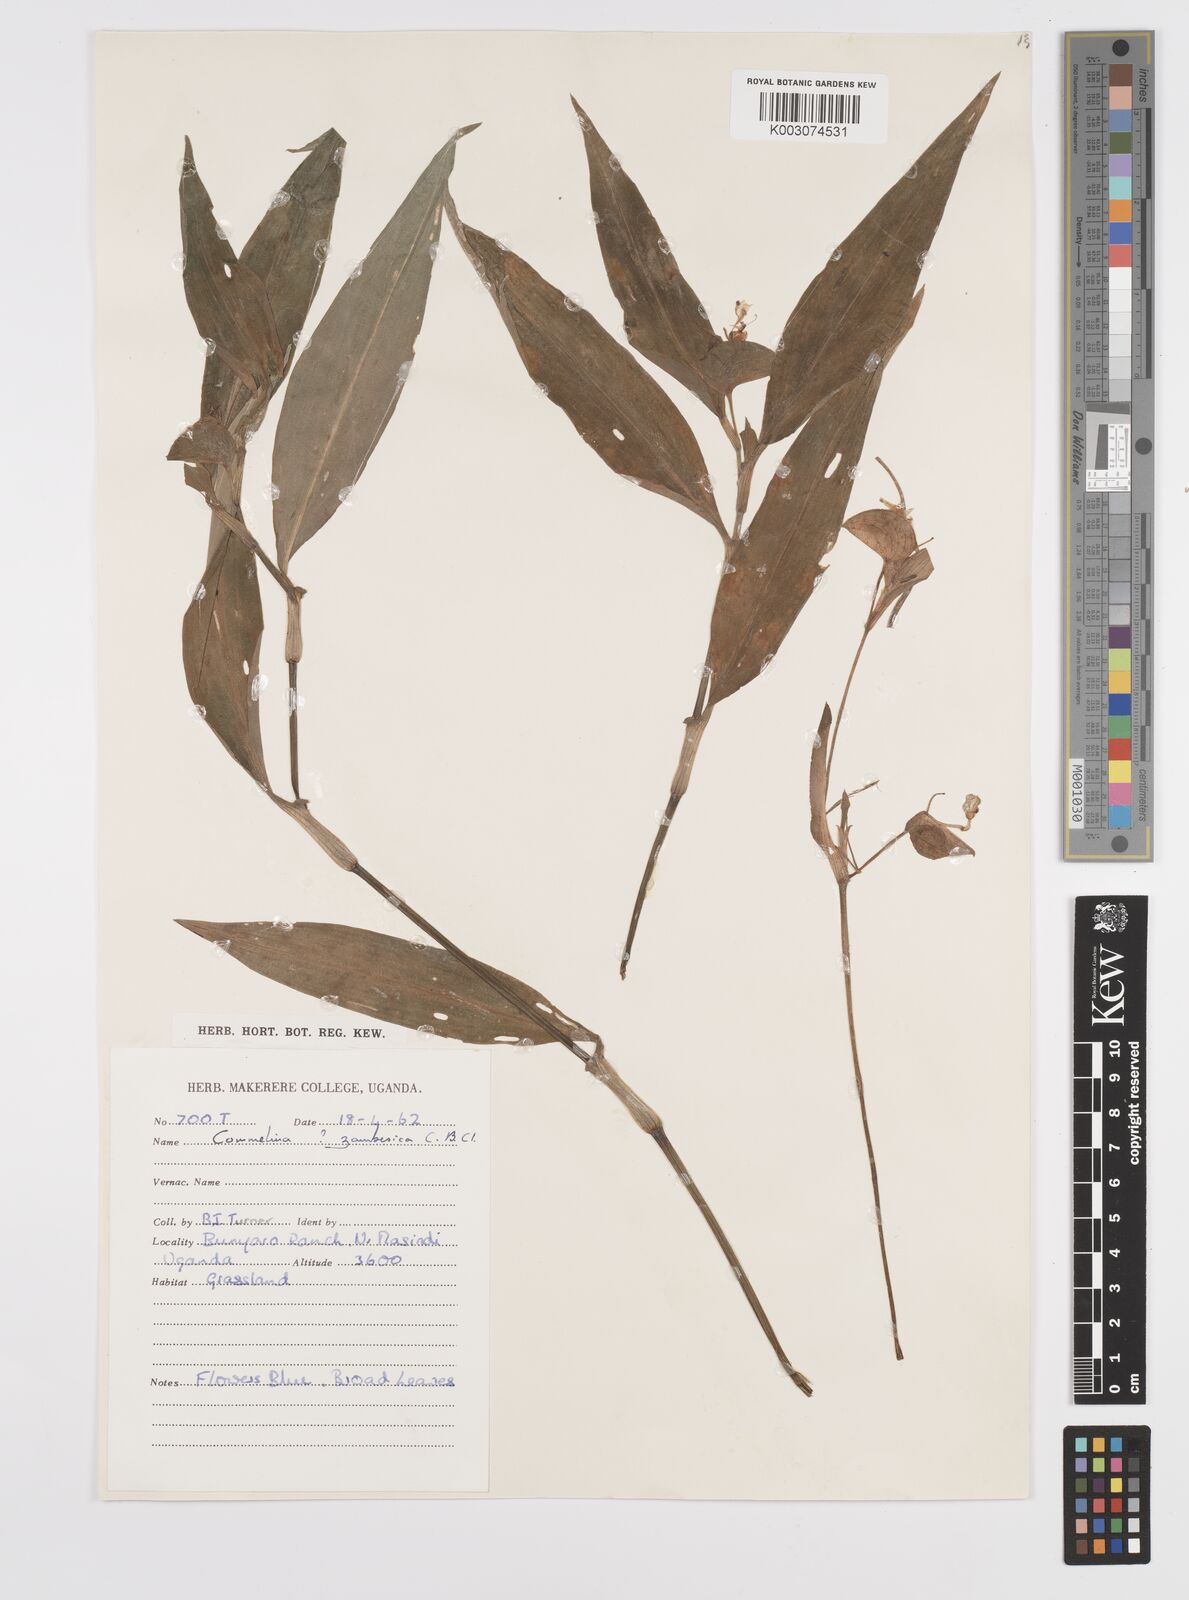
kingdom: Plantae
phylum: Tracheophyta
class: Liliopsida
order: Commelinales
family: Commelinaceae
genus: Commelina
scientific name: Commelina zambesica
